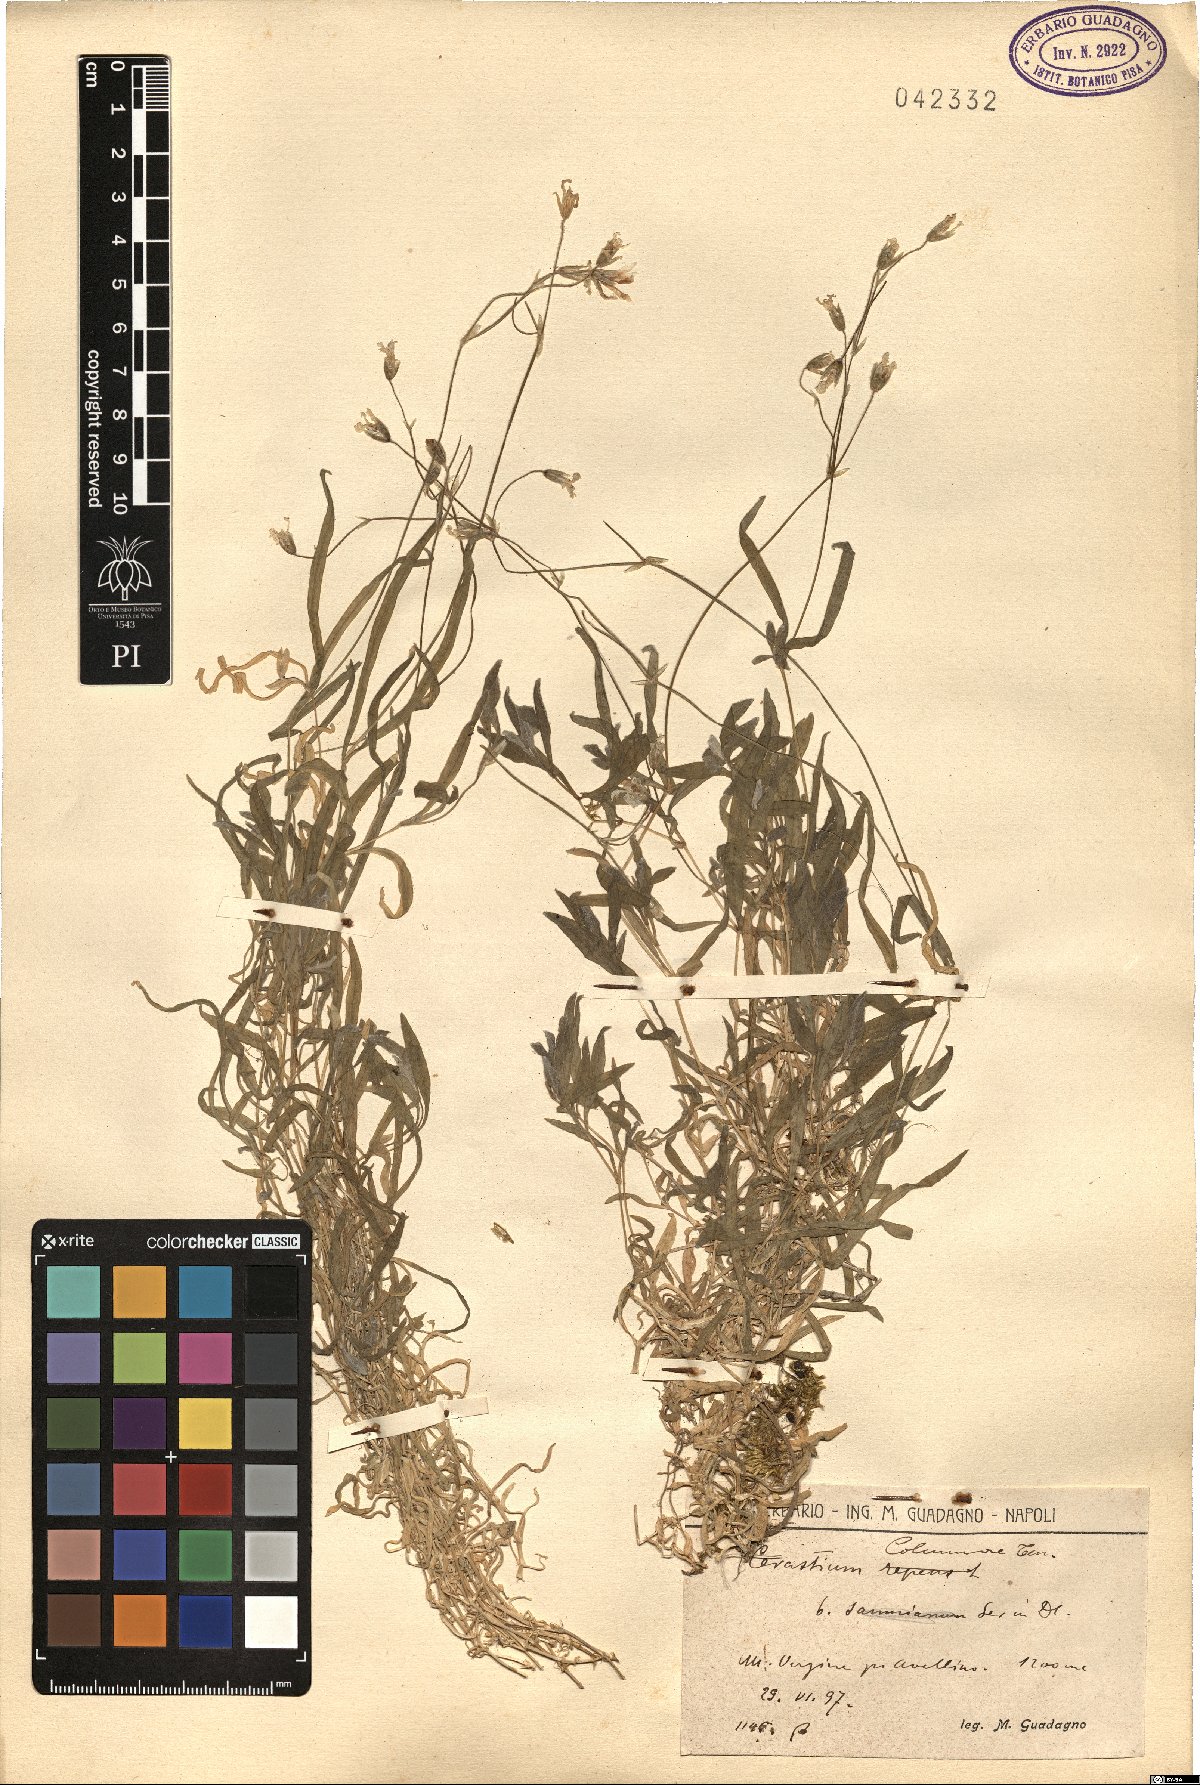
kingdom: Plantae
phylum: Tracheophyta
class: Magnoliopsida
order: Caryophyllales
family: Caryophyllaceae
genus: Cerastium
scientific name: Cerastium tomentosum
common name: Snow-in-summer
